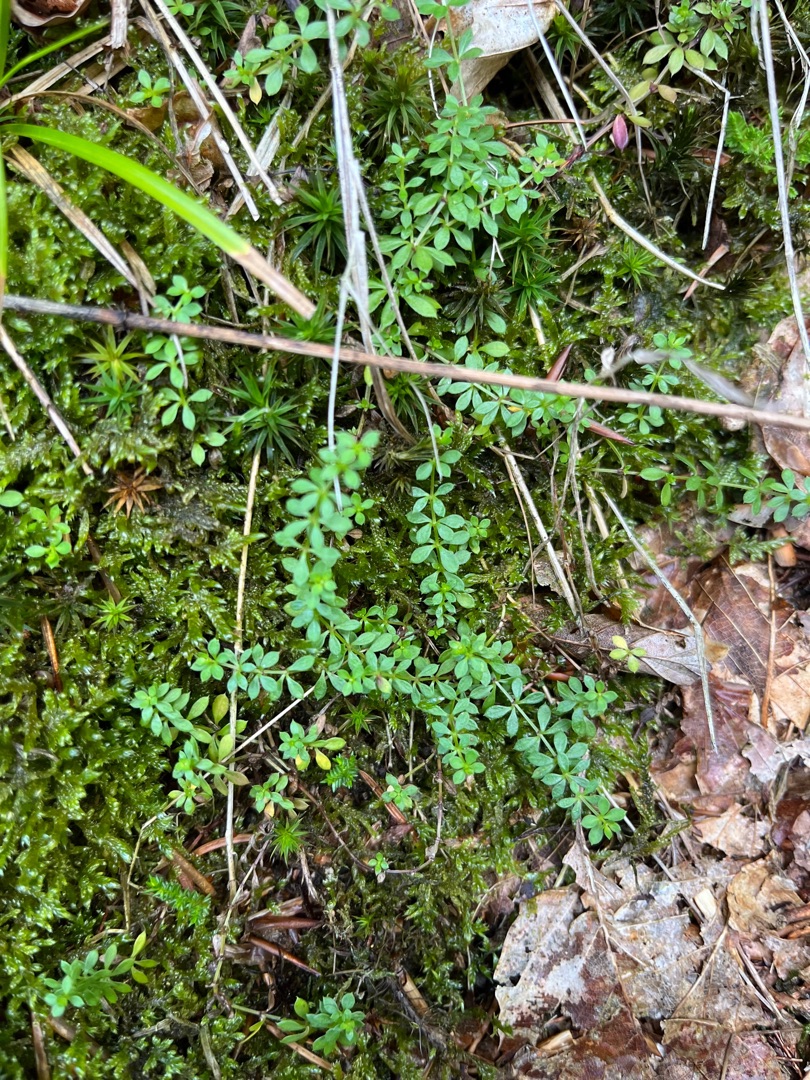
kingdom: Plantae
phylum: Tracheophyta
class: Magnoliopsida
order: Gentianales
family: Rubiaceae
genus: Galium
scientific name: Galium saxatile
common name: Lyng-snerre
